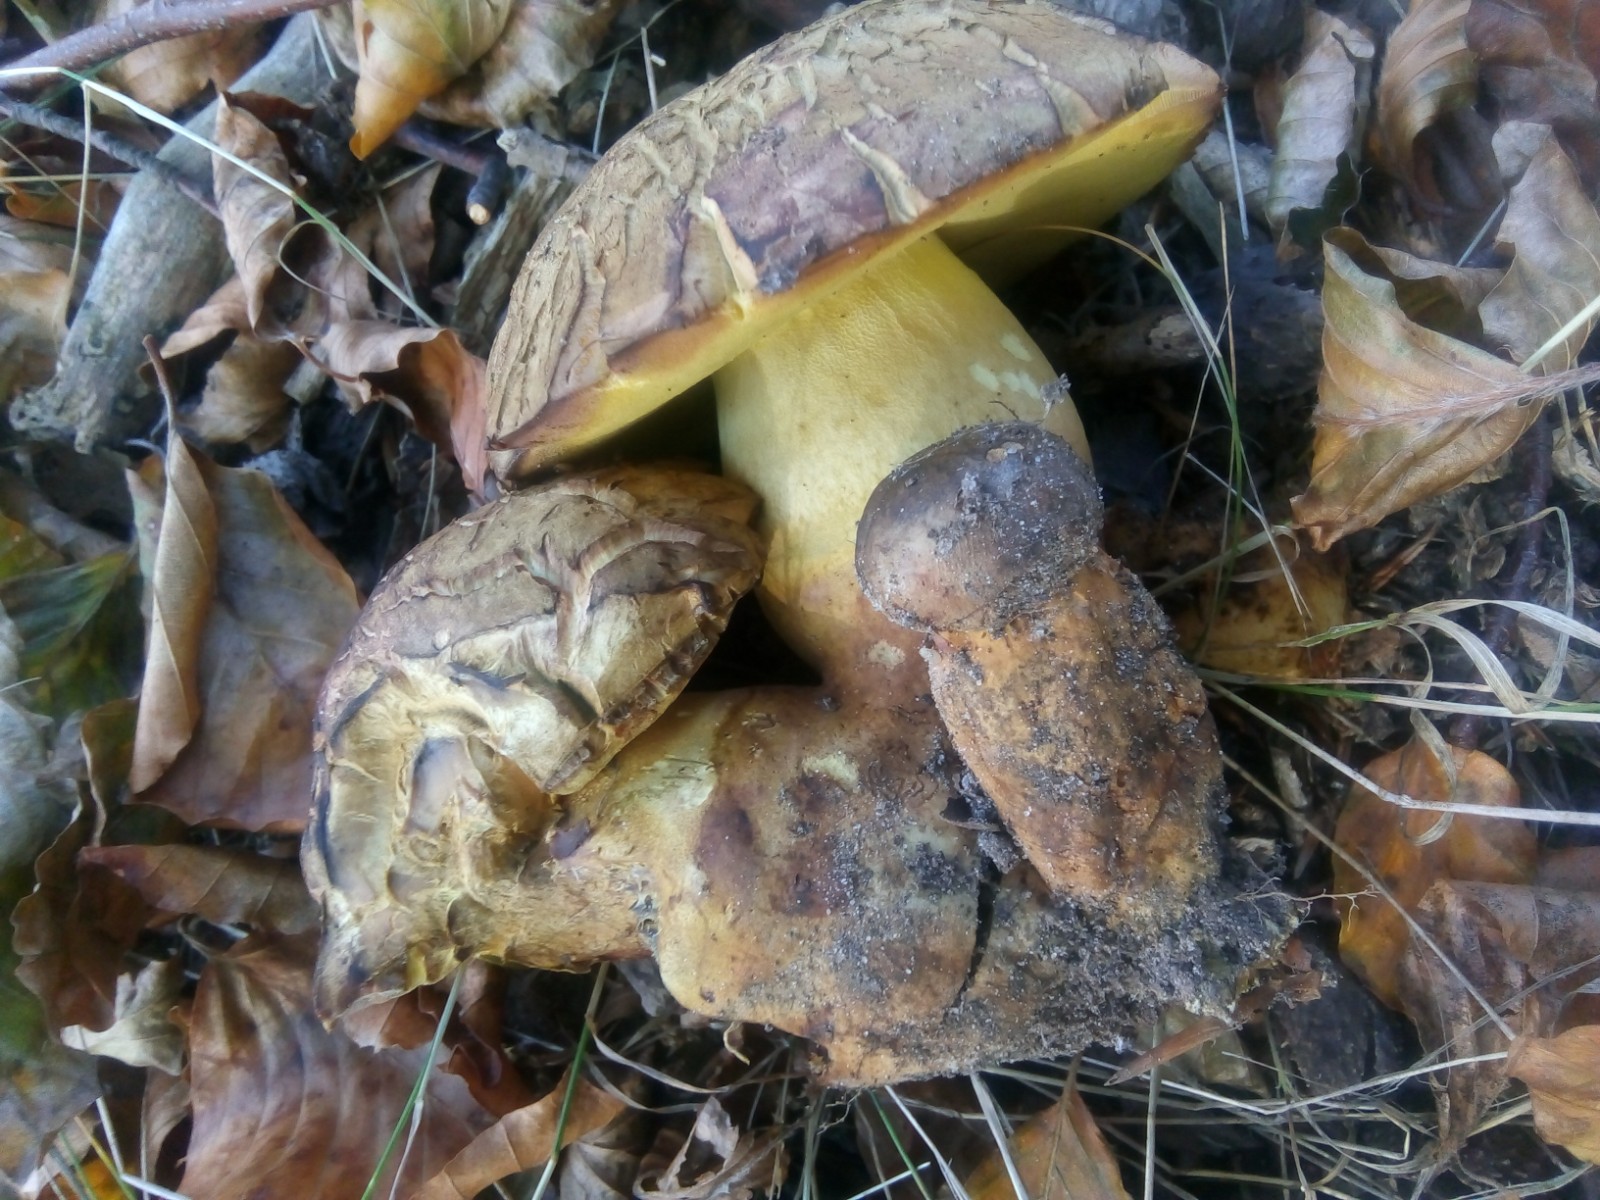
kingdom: Fungi
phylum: Basidiomycota
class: Agaricomycetes
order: Boletales
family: Boletaceae
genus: Butyriboletus
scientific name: Butyriboletus appendiculatus
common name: tenstokket rørhat
